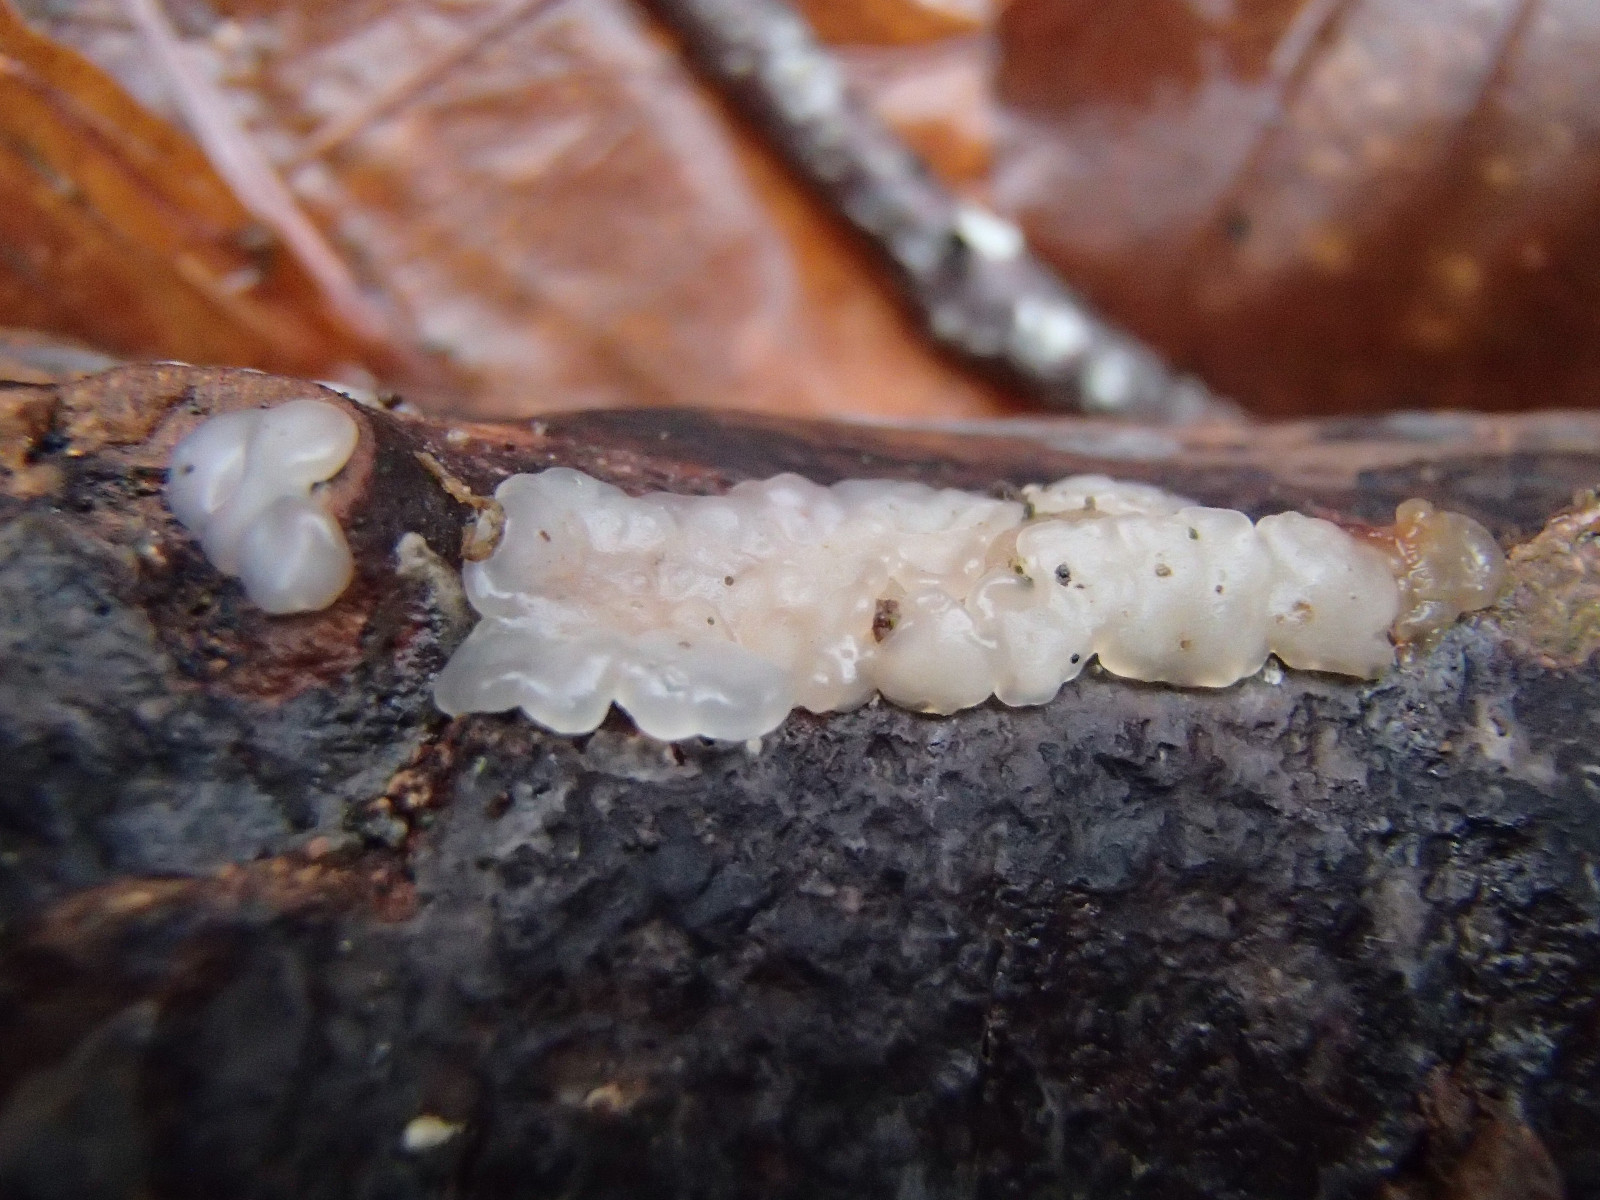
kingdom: Fungi
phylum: Basidiomycota
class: Agaricomycetes
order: Auriculariales
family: Auriculariaceae
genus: Exidia
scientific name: Exidia thuretiana
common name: hvidlig bævretop
